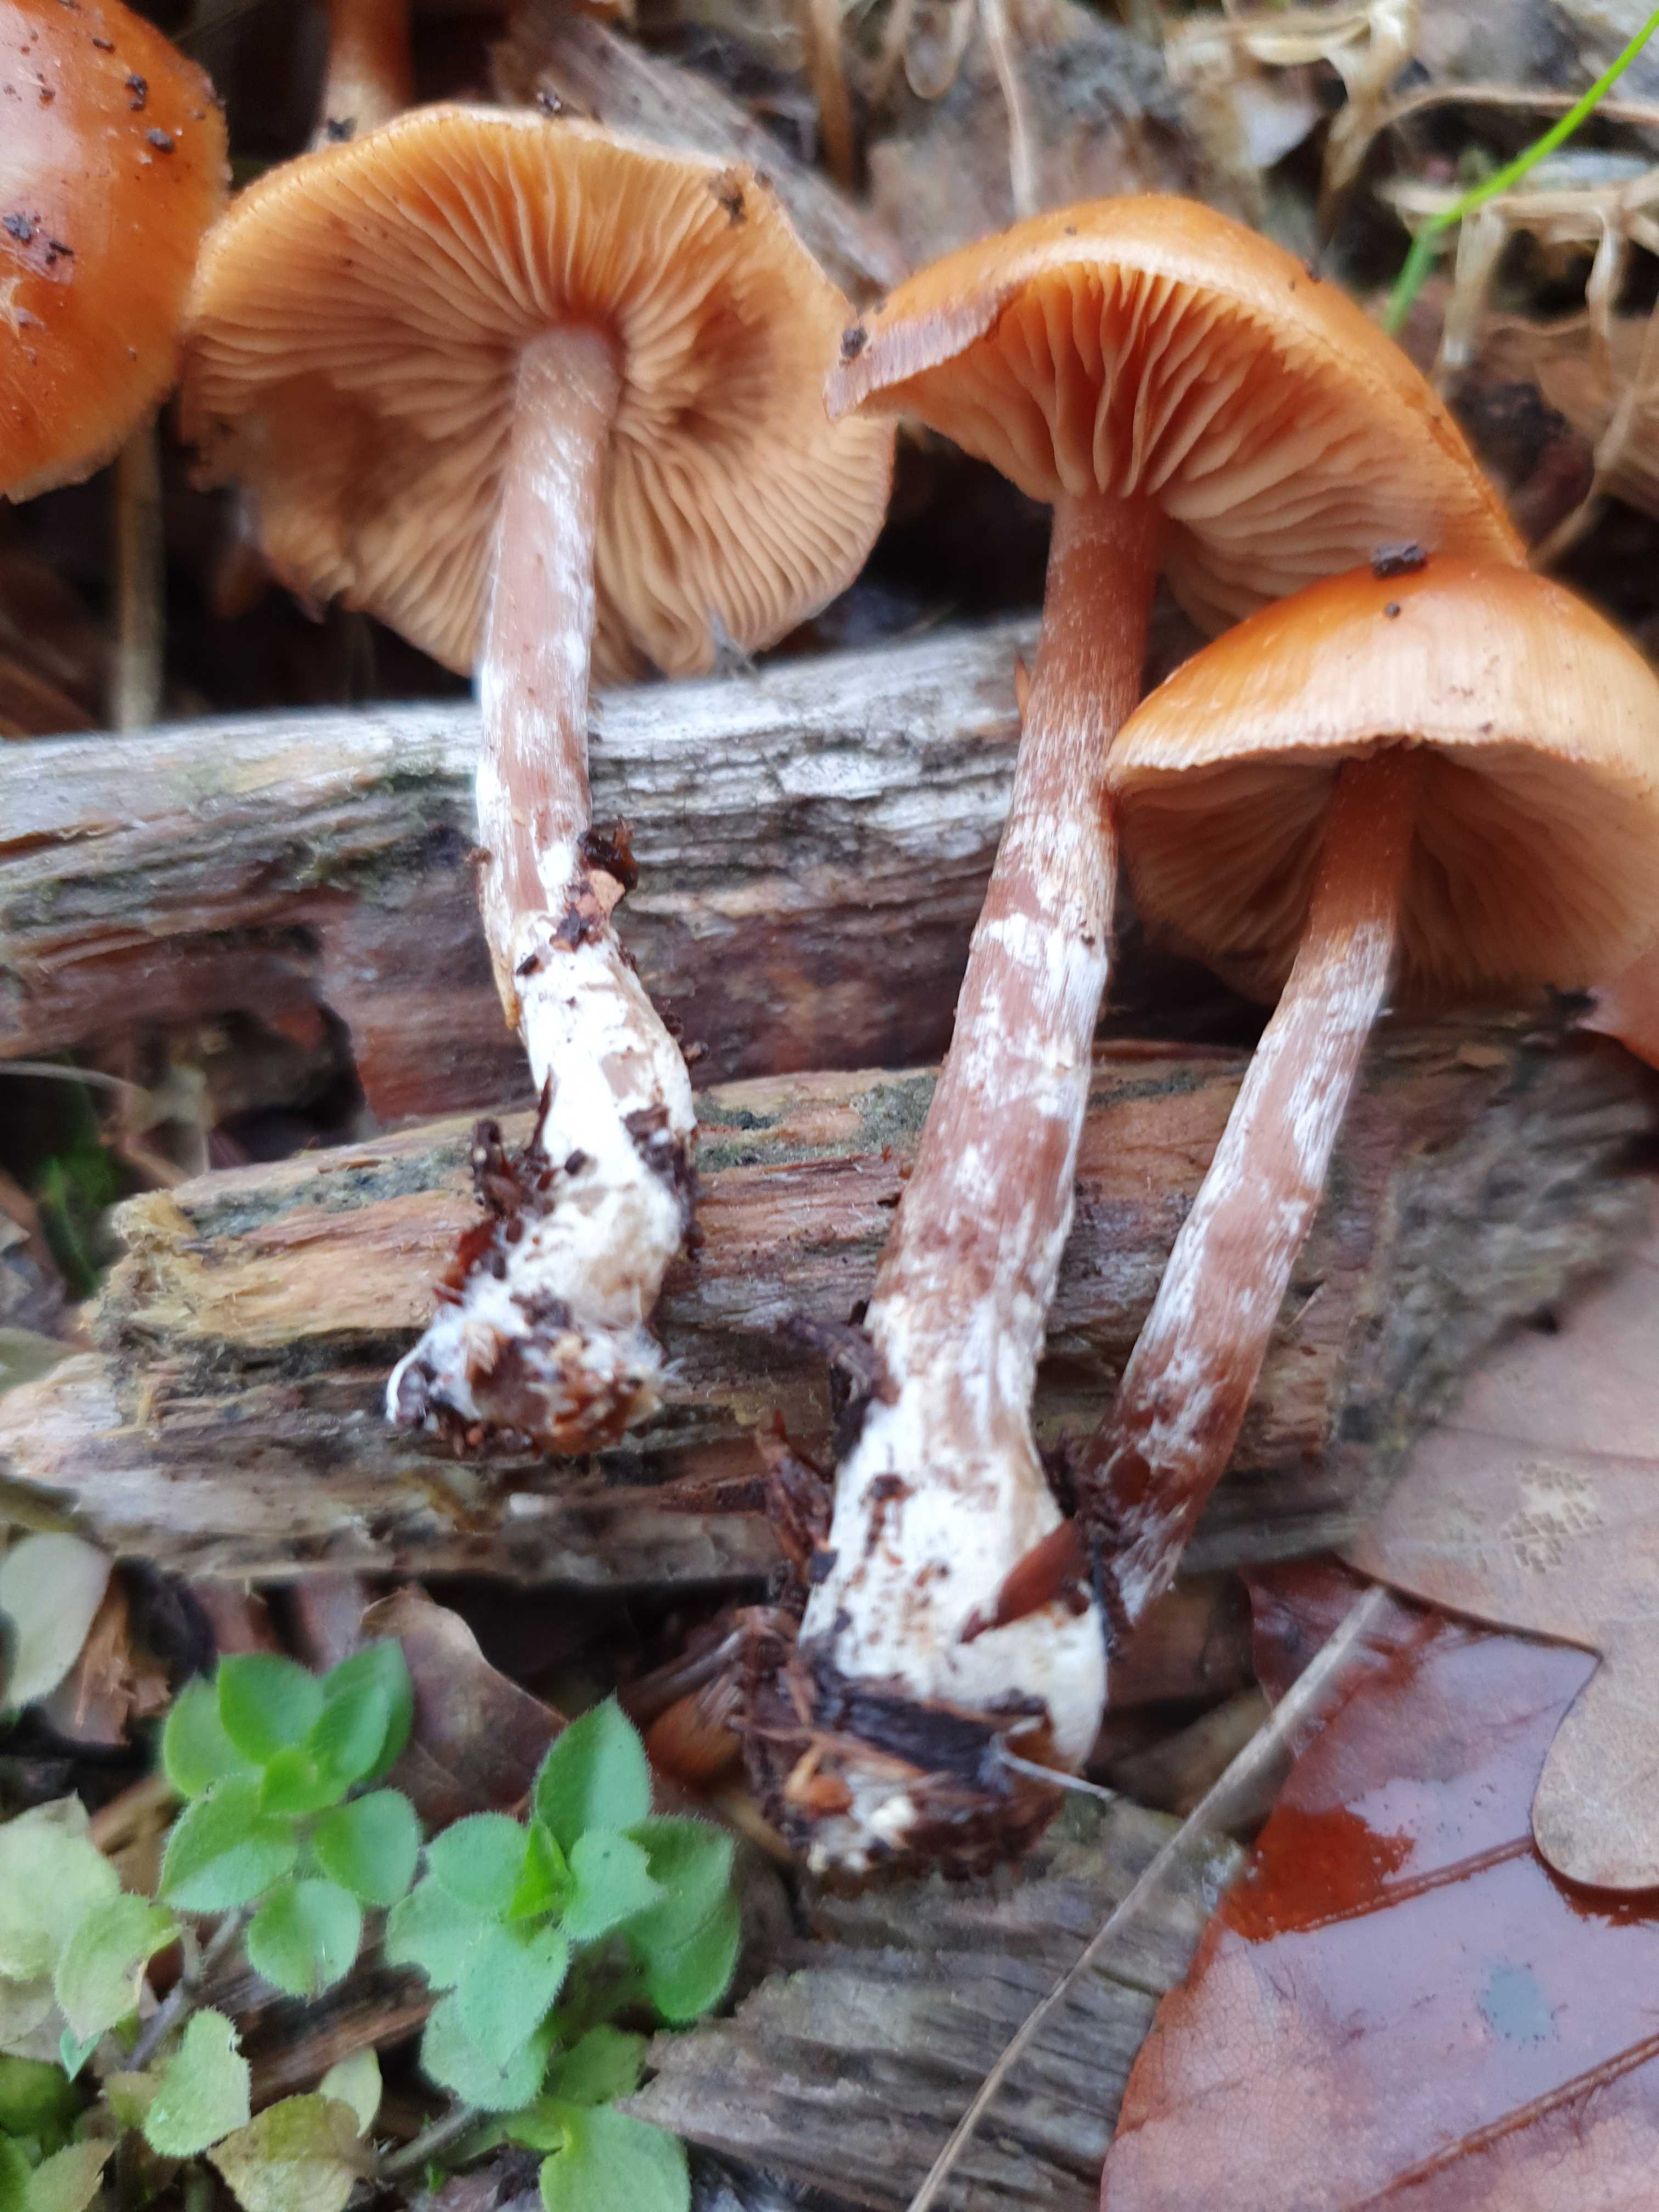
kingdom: Fungi
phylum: Basidiomycota
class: Agaricomycetes
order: Agaricales
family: Hymenogastraceae
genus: Galerina
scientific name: Galerina sideroides
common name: træflis-hjelmhat
